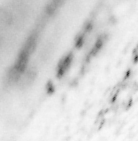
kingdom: Animalia
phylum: Chordata
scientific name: Chordata
